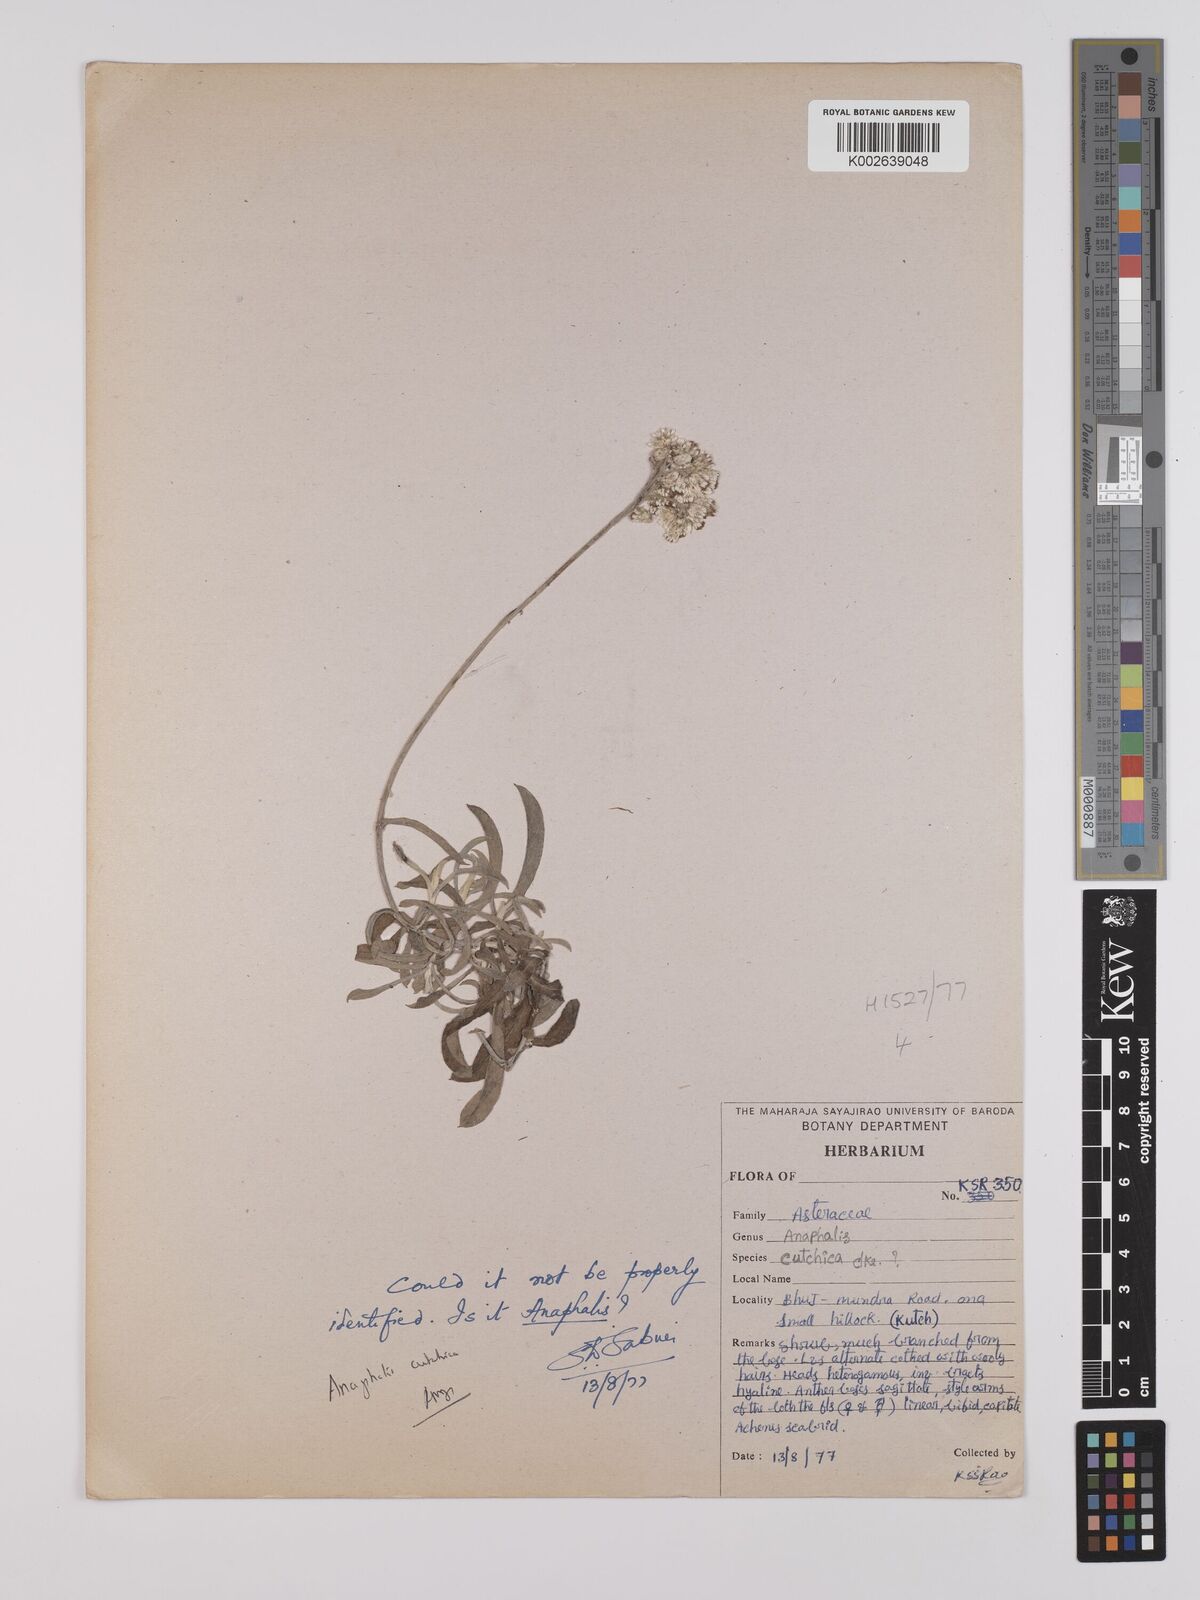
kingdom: Plantae
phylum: Tracheophyta
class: Magnoliopsida
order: Asterales
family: Asteraceae
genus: Helichrysum
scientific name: Helichrysum cutchicum
